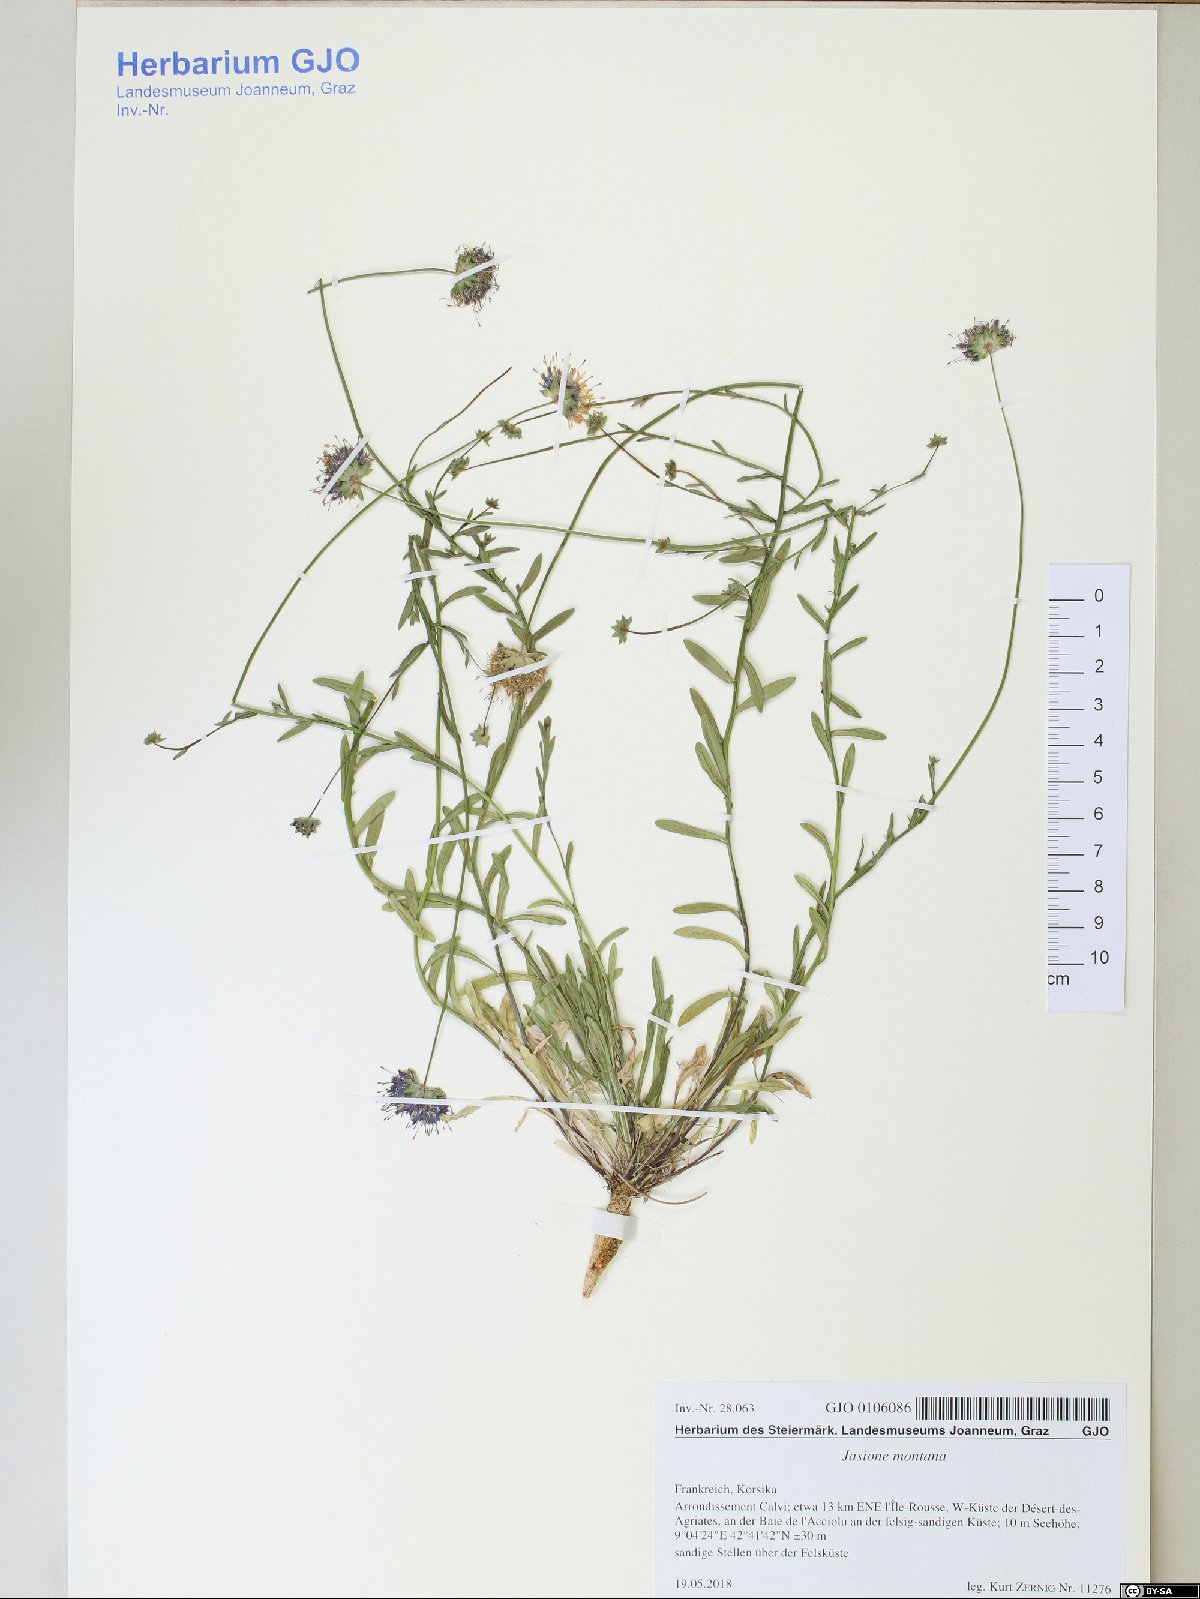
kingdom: Plantae
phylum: Tracheophyta
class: Magnoliopsida
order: Asterales
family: Campanulaceae
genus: Jasione
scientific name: Jasione montana
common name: Sheep's-bit
